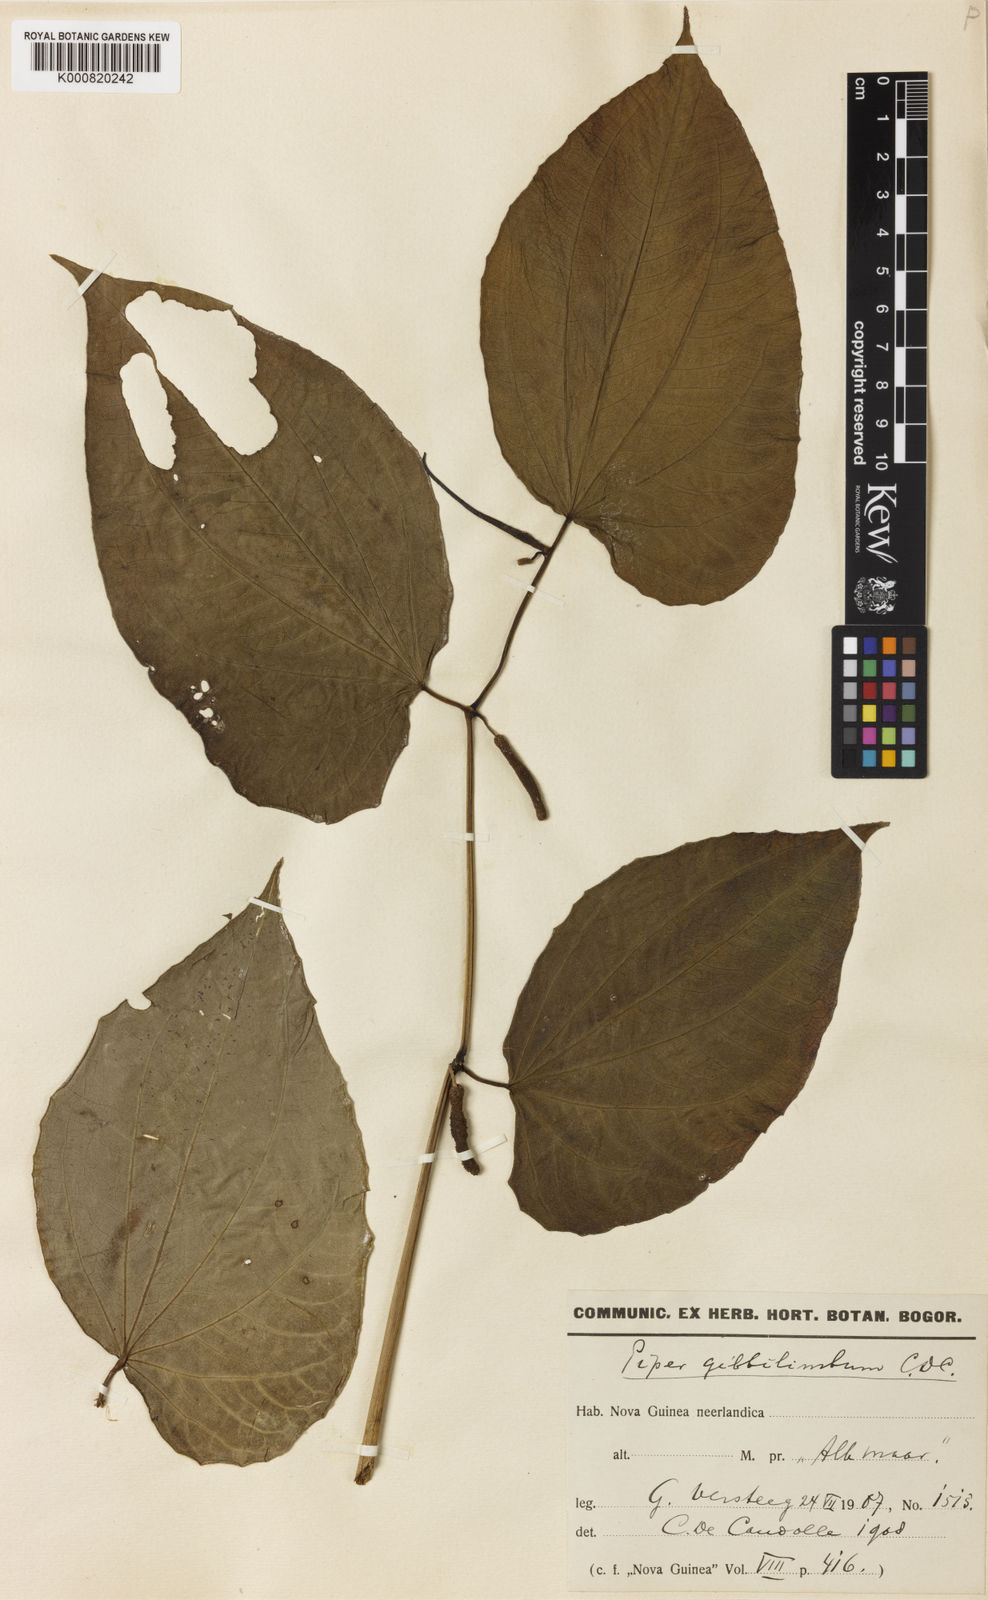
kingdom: Plantae
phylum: Tracheophyta
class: Magnoliopsida
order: Piperales
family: Piperaceae
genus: Piper
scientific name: Piper gibbilimbum
